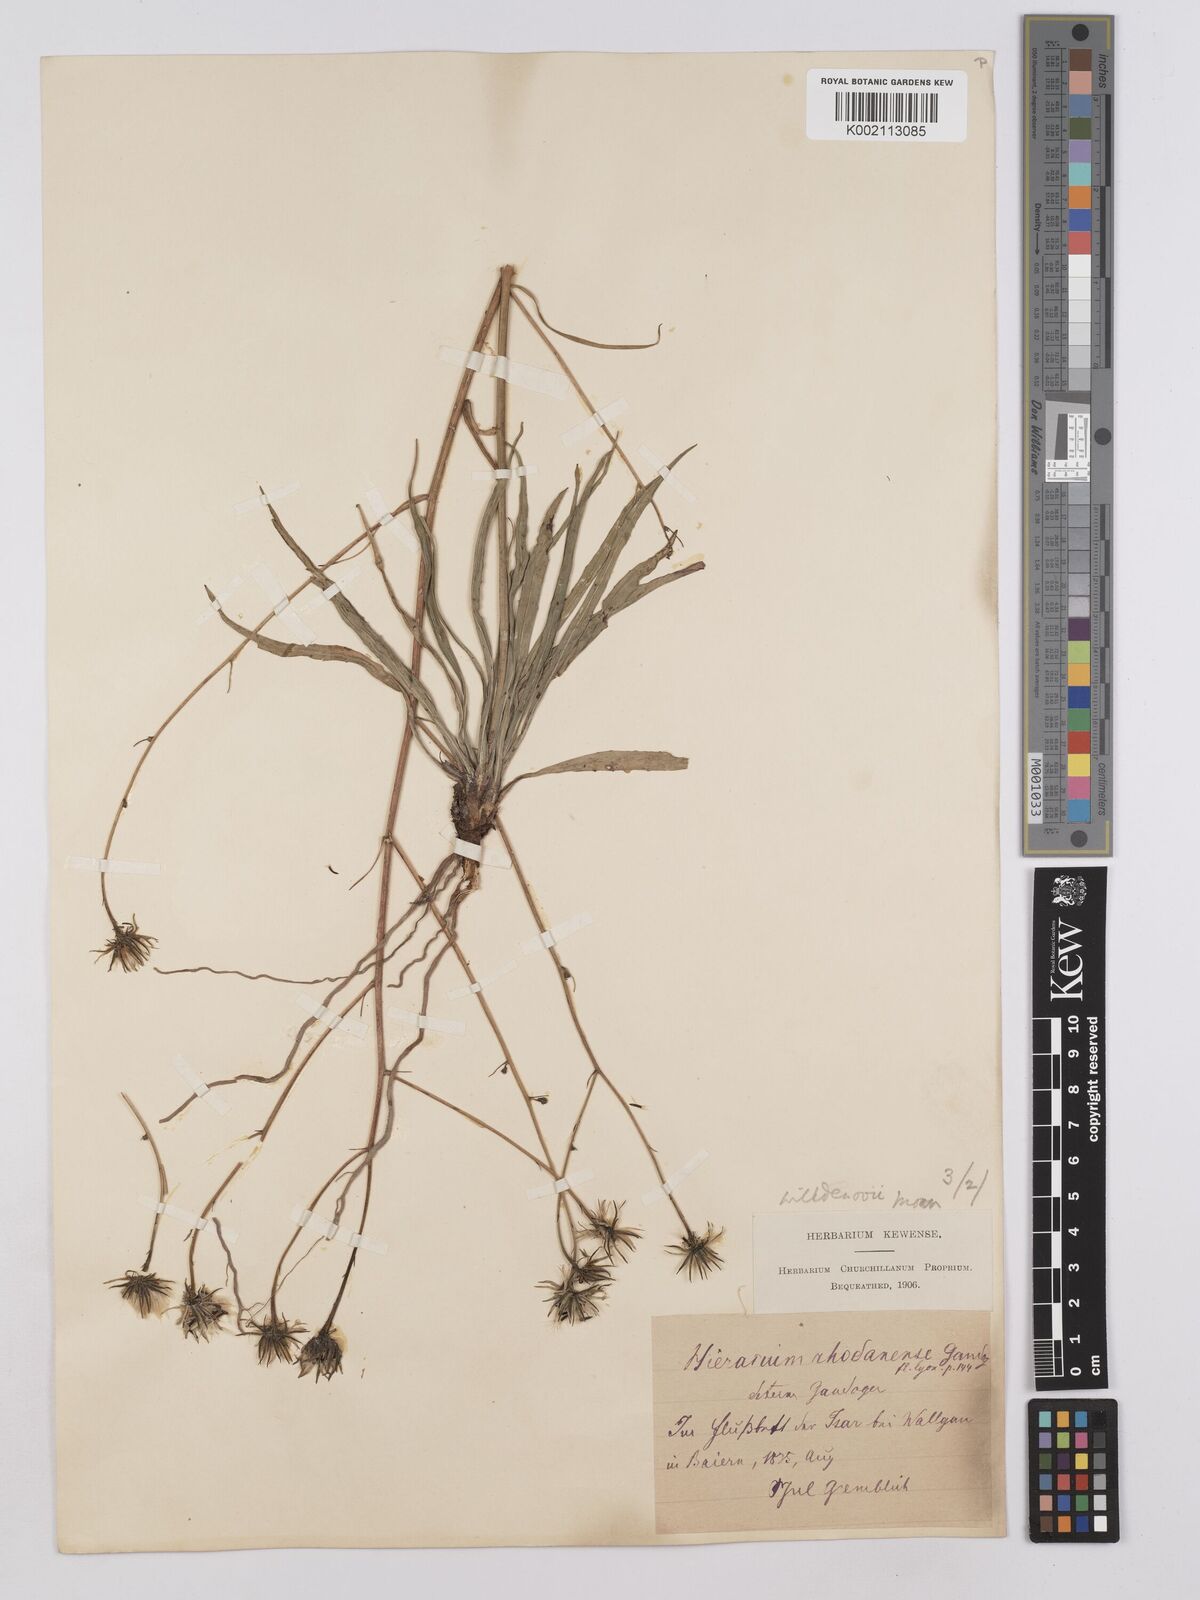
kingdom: Plantae
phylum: Tracheophyta
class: Magnoliopsida
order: Asterales
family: Asteraceae
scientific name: Asteraceae
